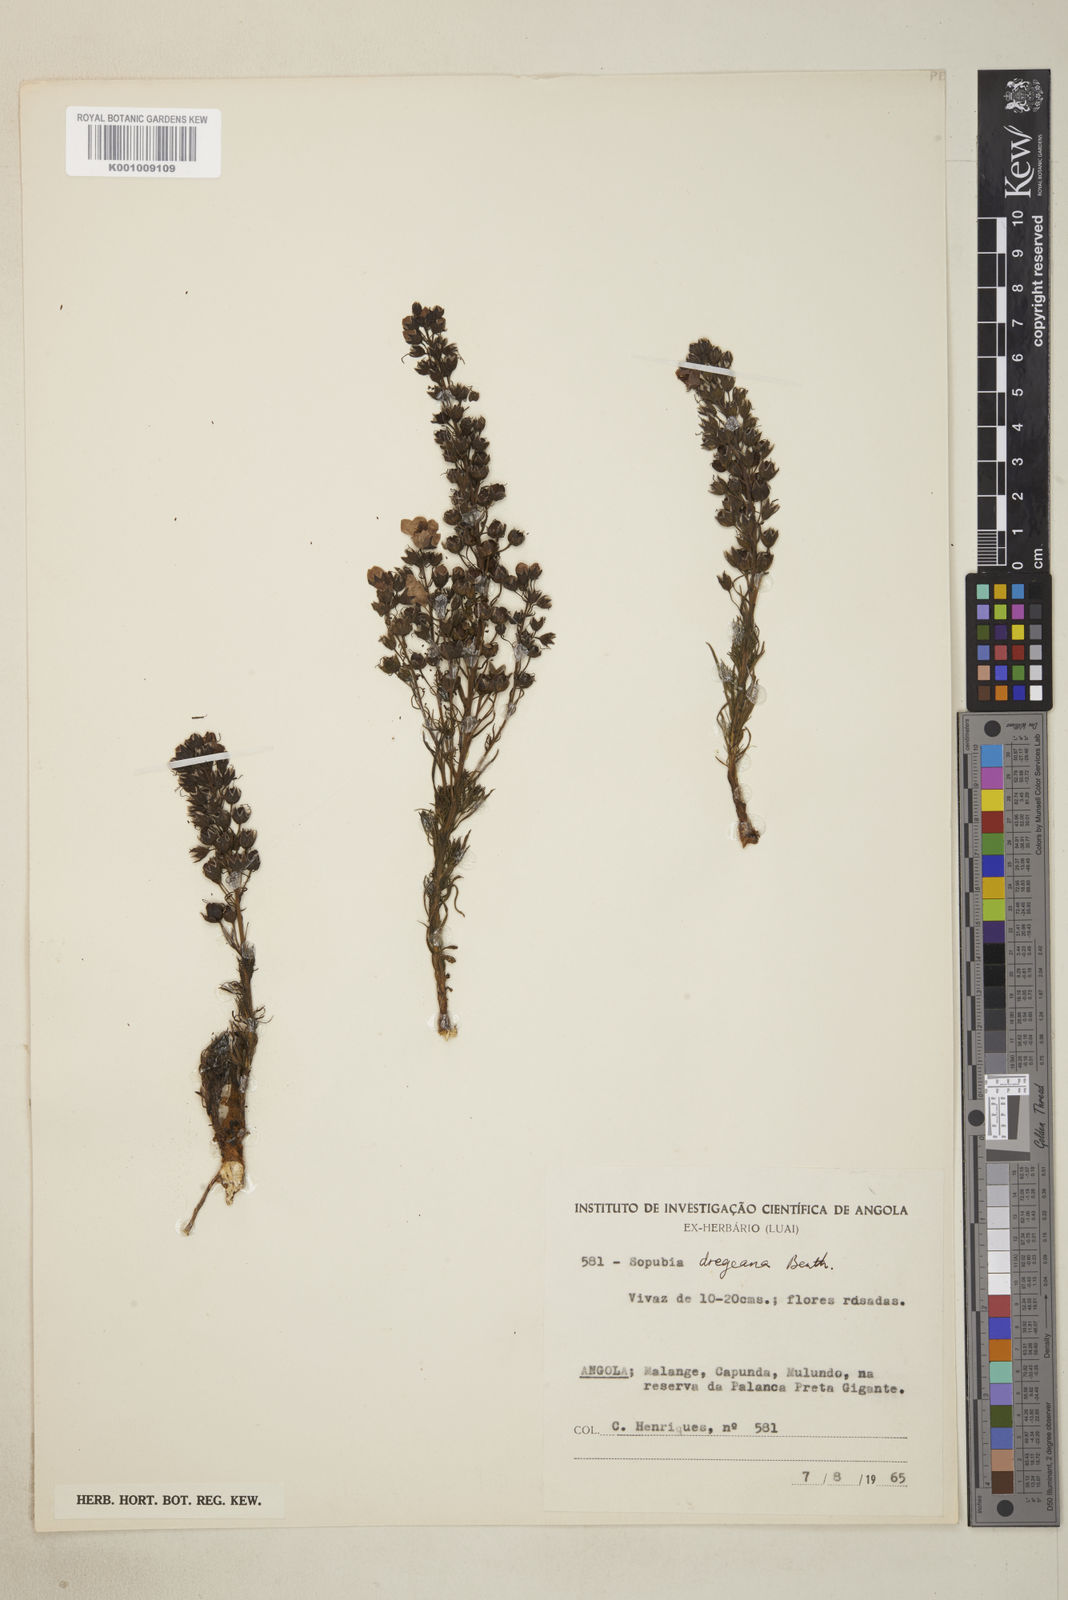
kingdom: Plantae
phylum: Tracheophyta
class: Magnoliopsida
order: Lamiales
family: Orobanchaceae
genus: Sopubia
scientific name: Sopubia mannii
